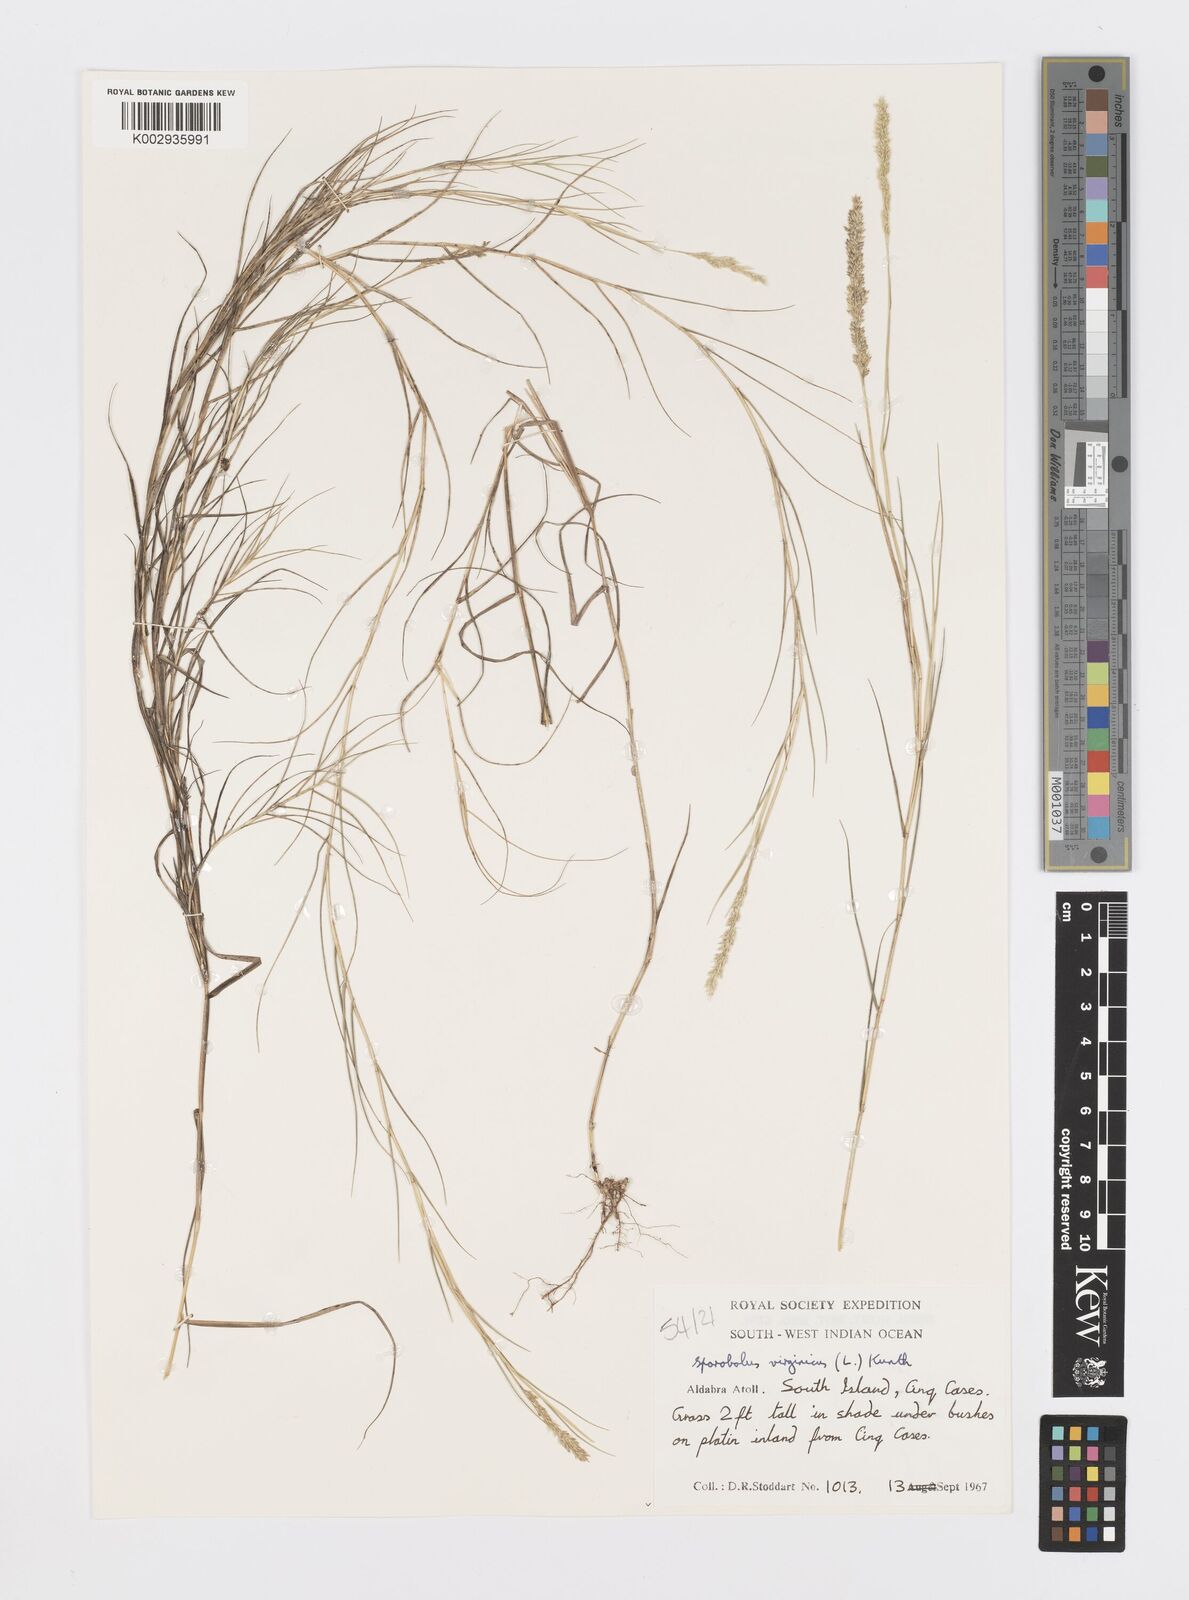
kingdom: Plantae
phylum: Tracheophyta
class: Liliopsida
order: Poales
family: Poaceae
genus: Sporobolus
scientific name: Sporobolus virginicus
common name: Beach dropseed
